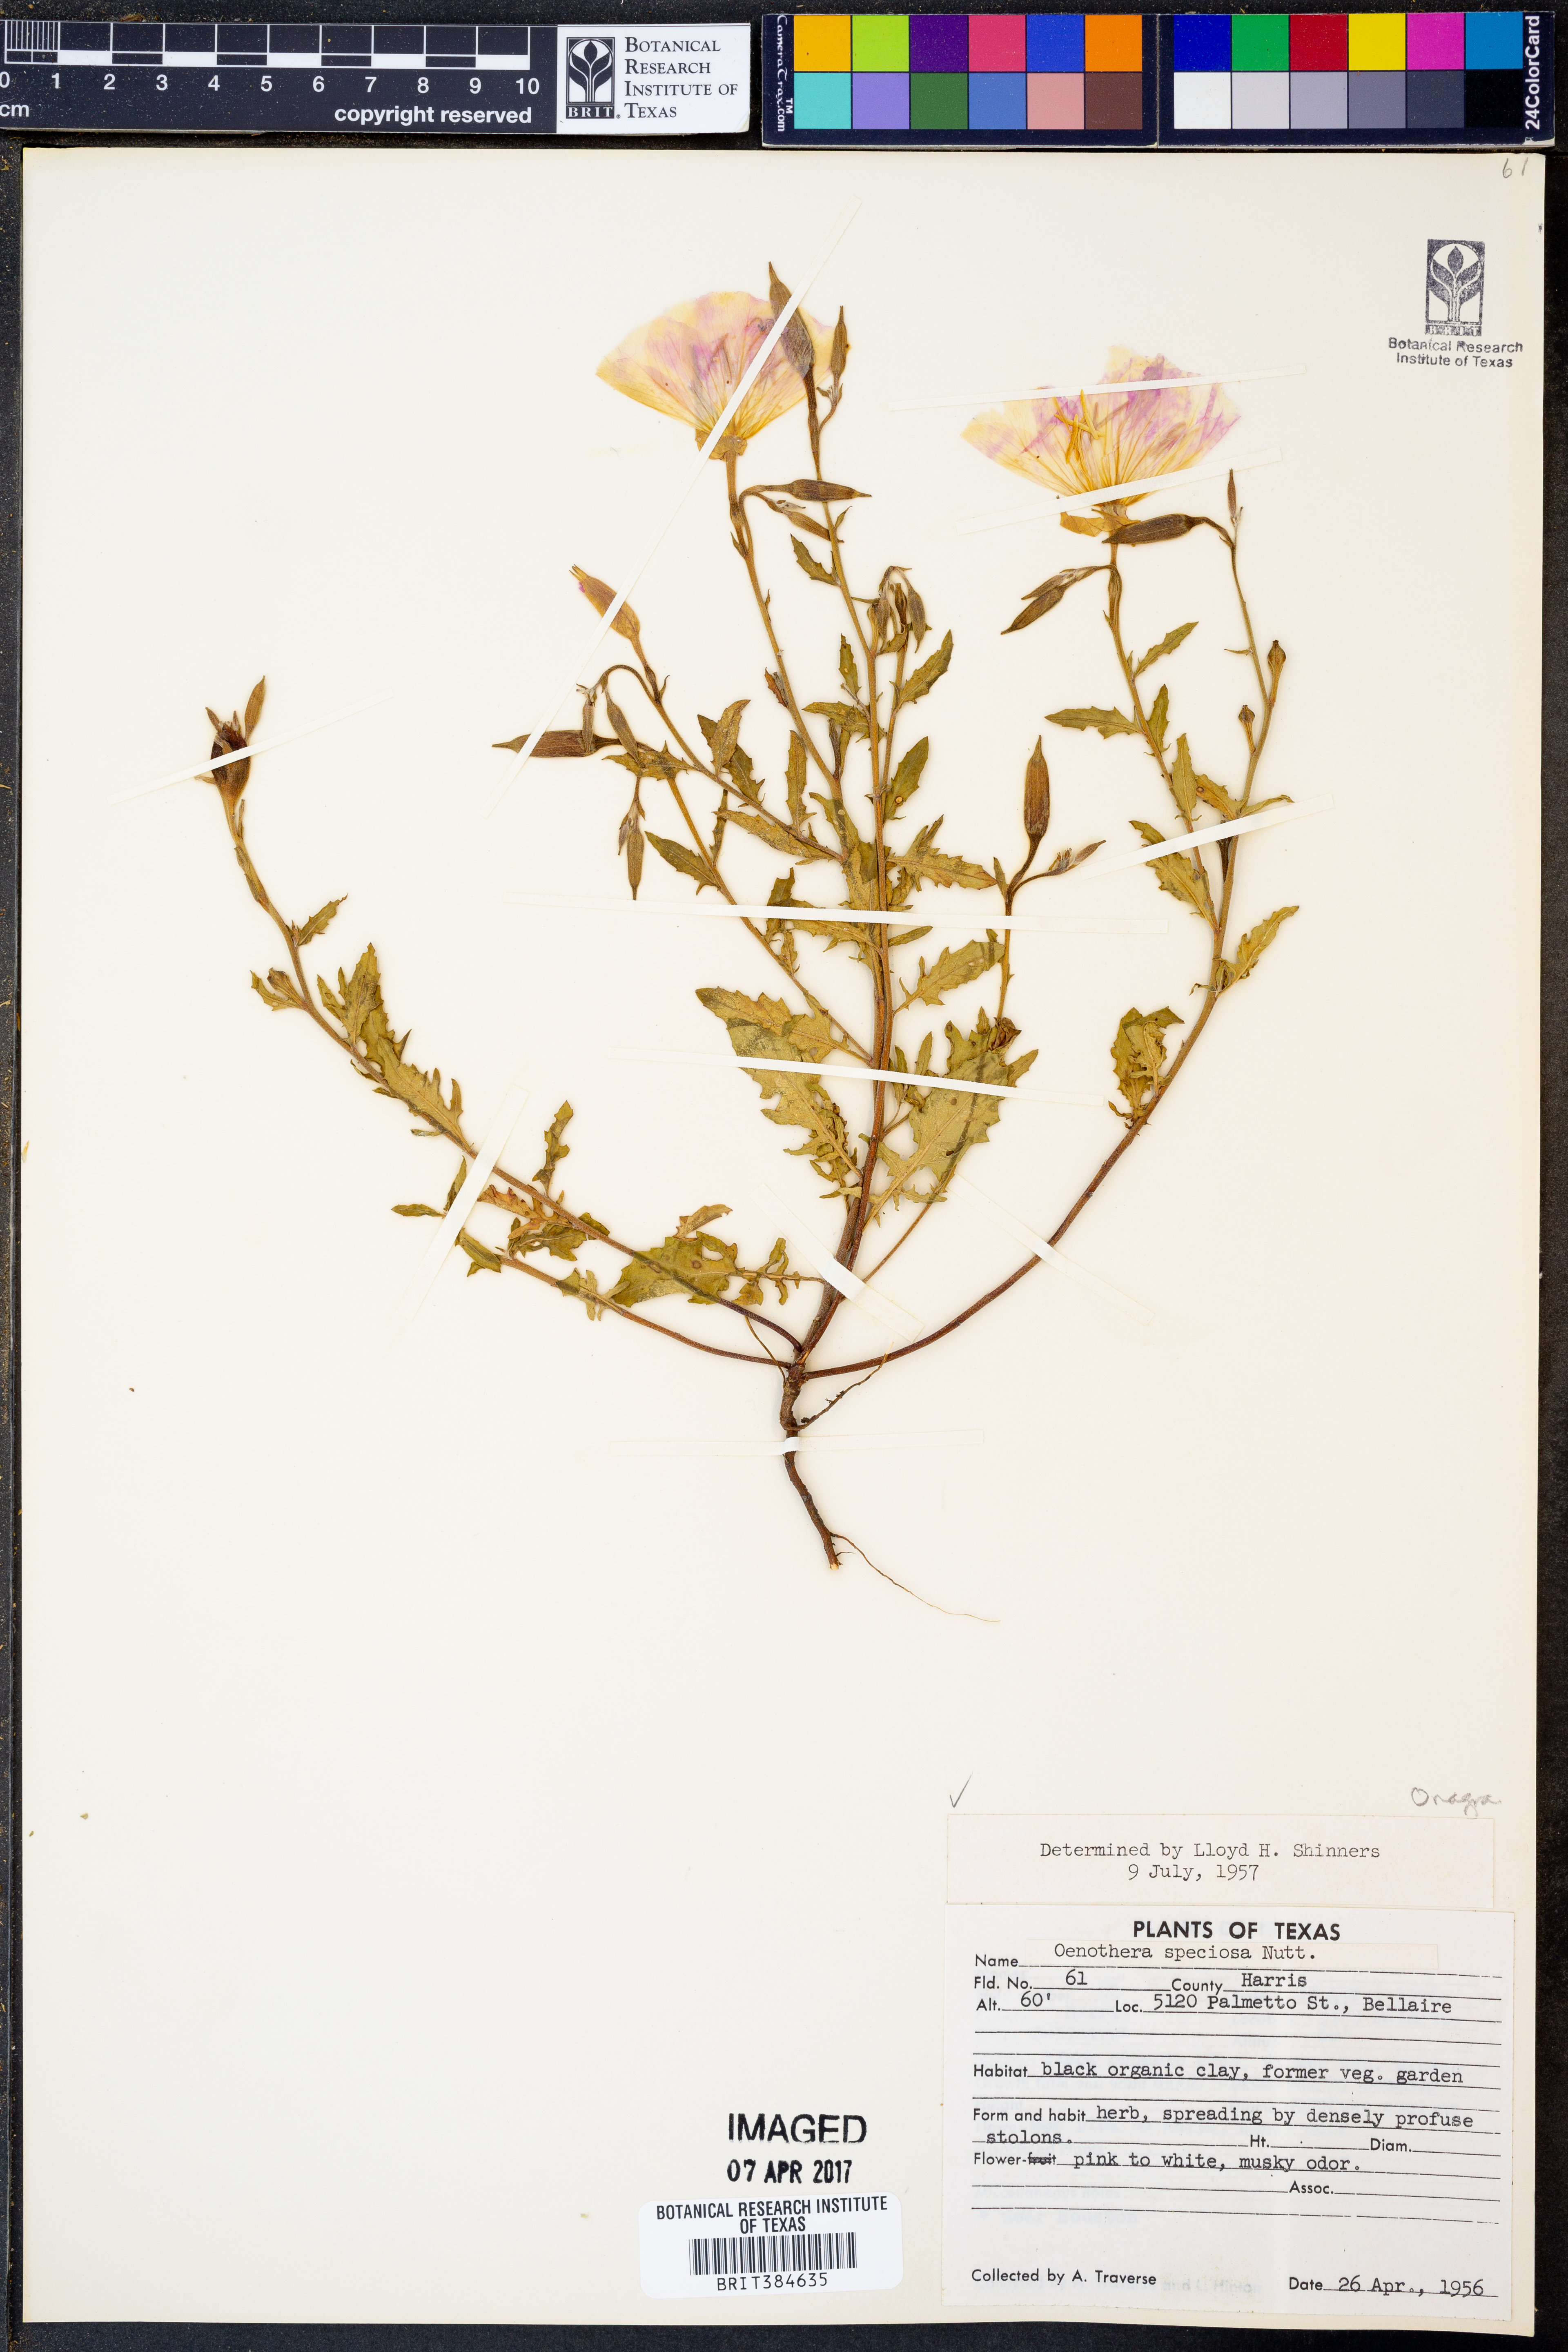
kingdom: Plantae
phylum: Tracheophyta
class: Magnoliopsida
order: Myrtales
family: Onagraceae
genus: Oenothera
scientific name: Oenothera speciosa
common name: White evening-primrose
